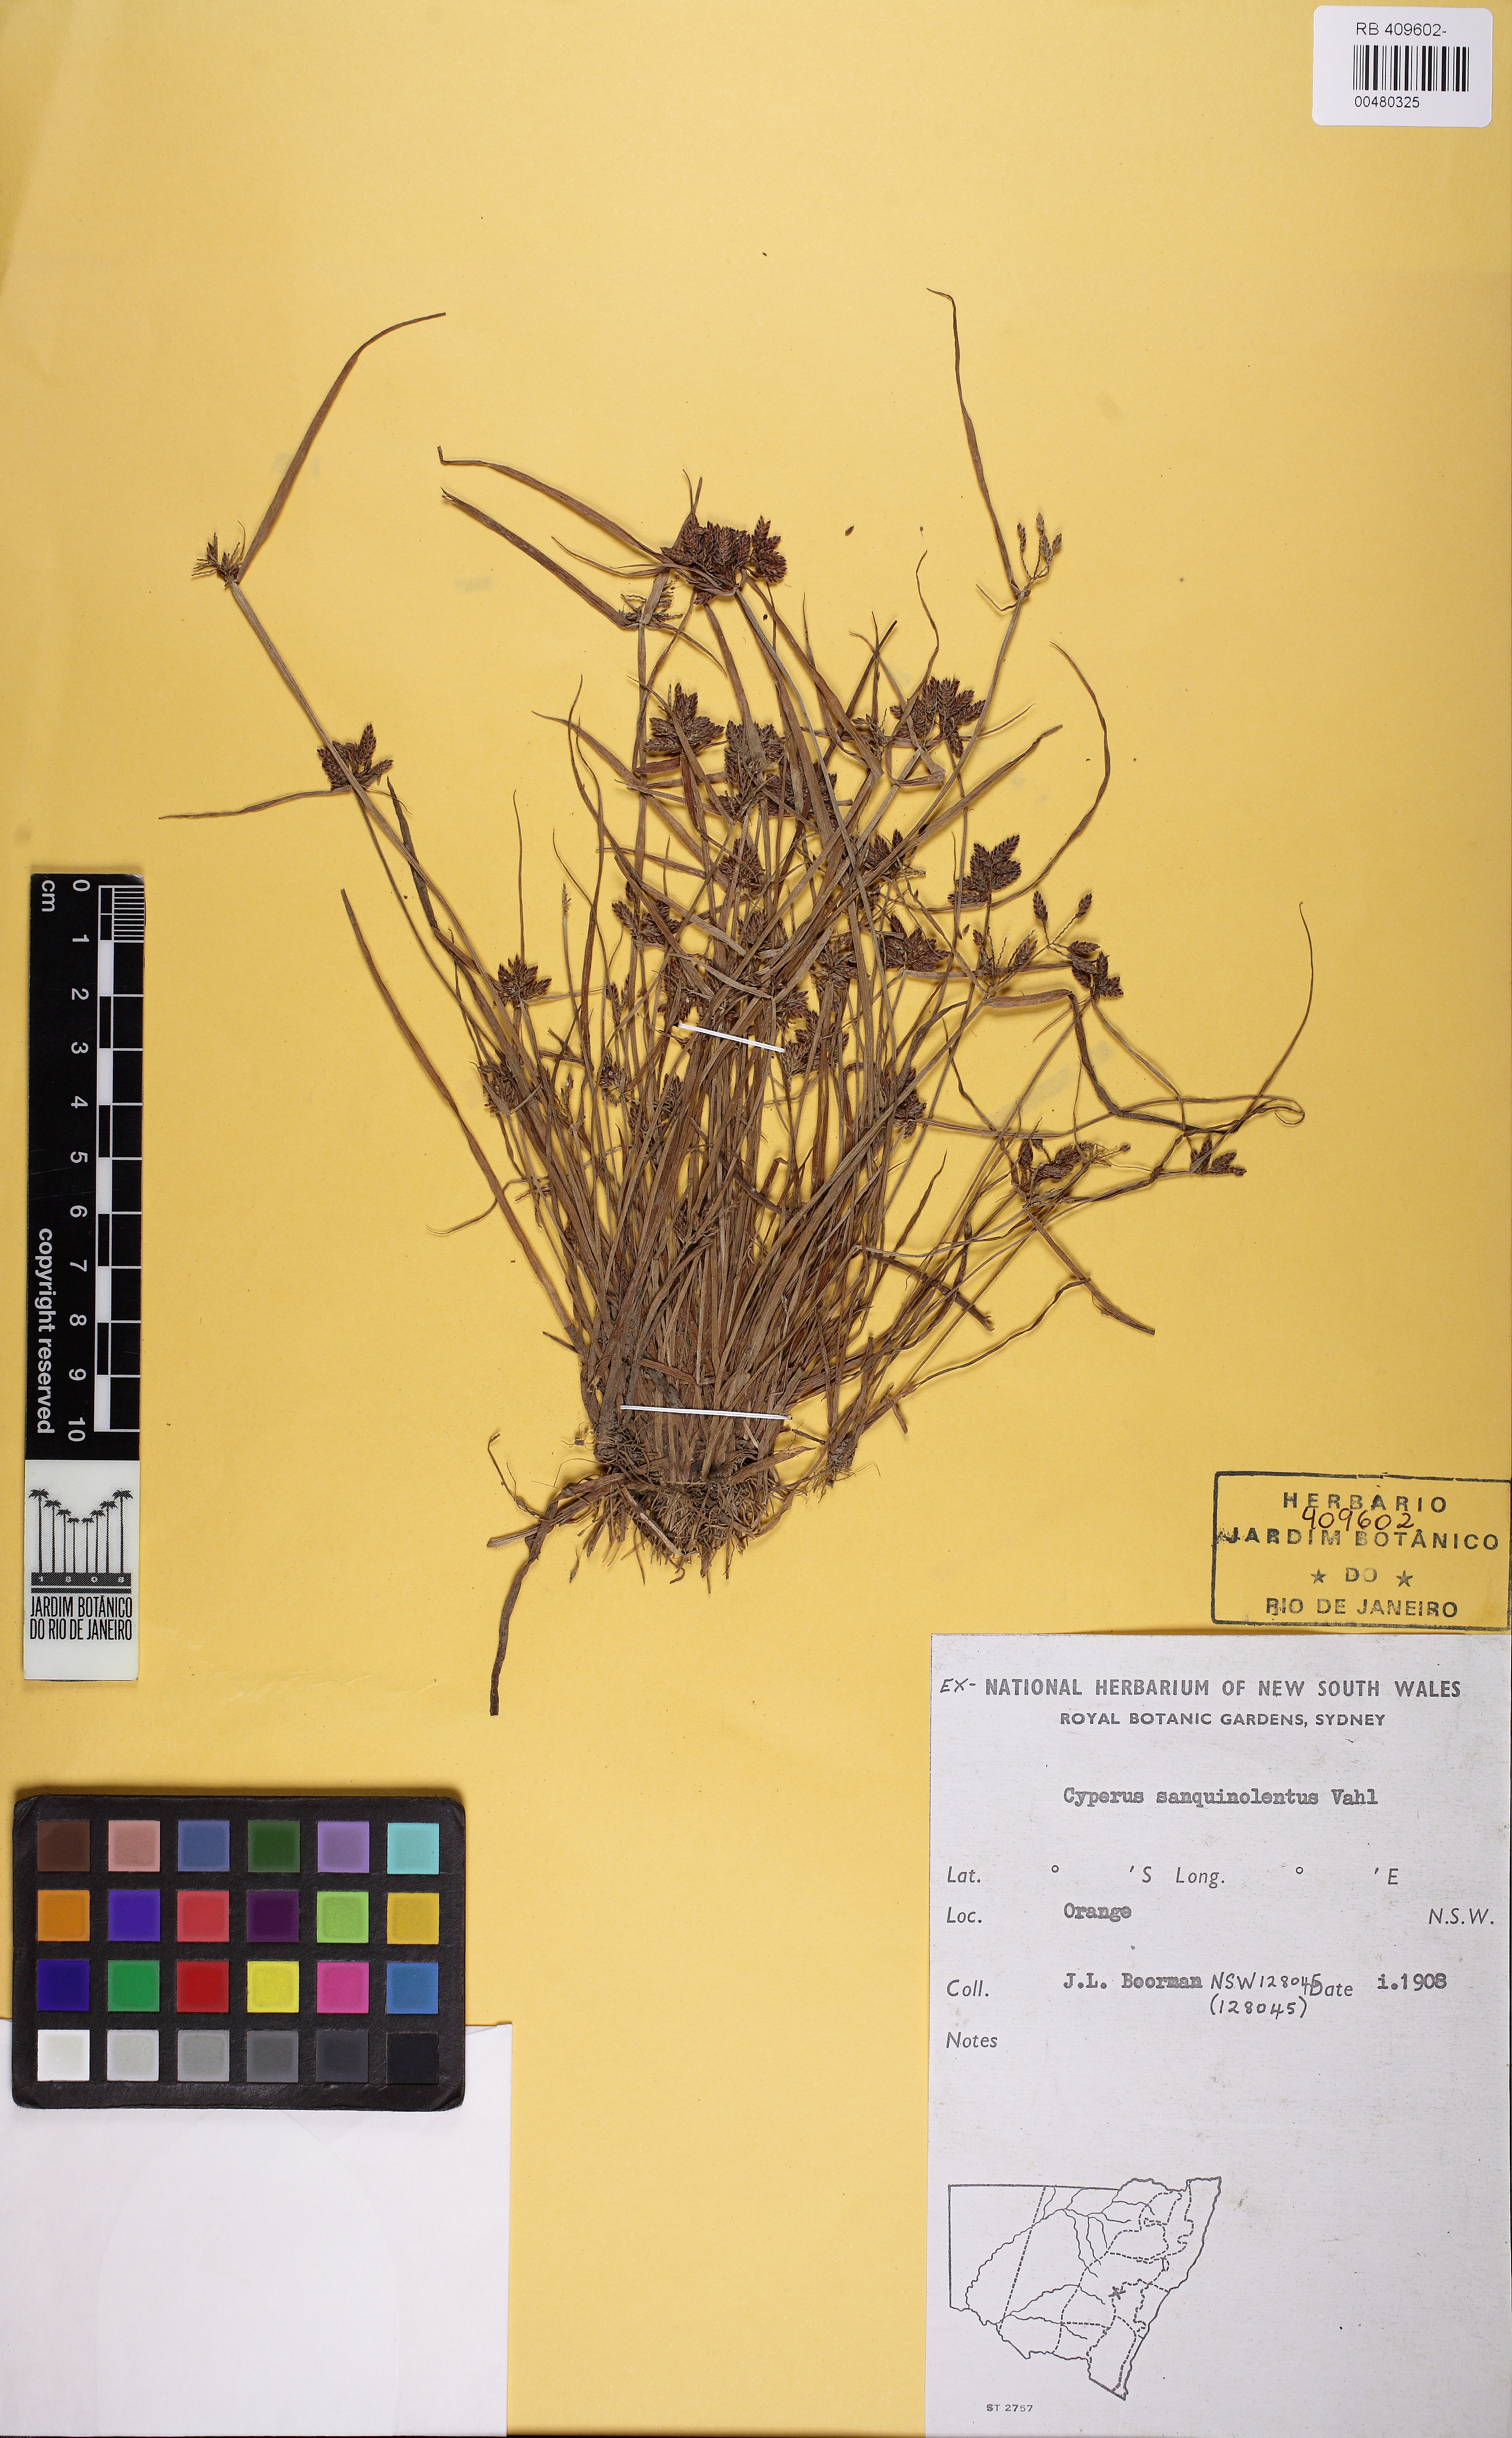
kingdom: Plantae
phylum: Tracheophyta
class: Liliopsida
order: Poales
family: Cyperaceae
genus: Cyperus
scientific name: Cyperus sanguinolentus
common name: Purpleglume flatsedge
